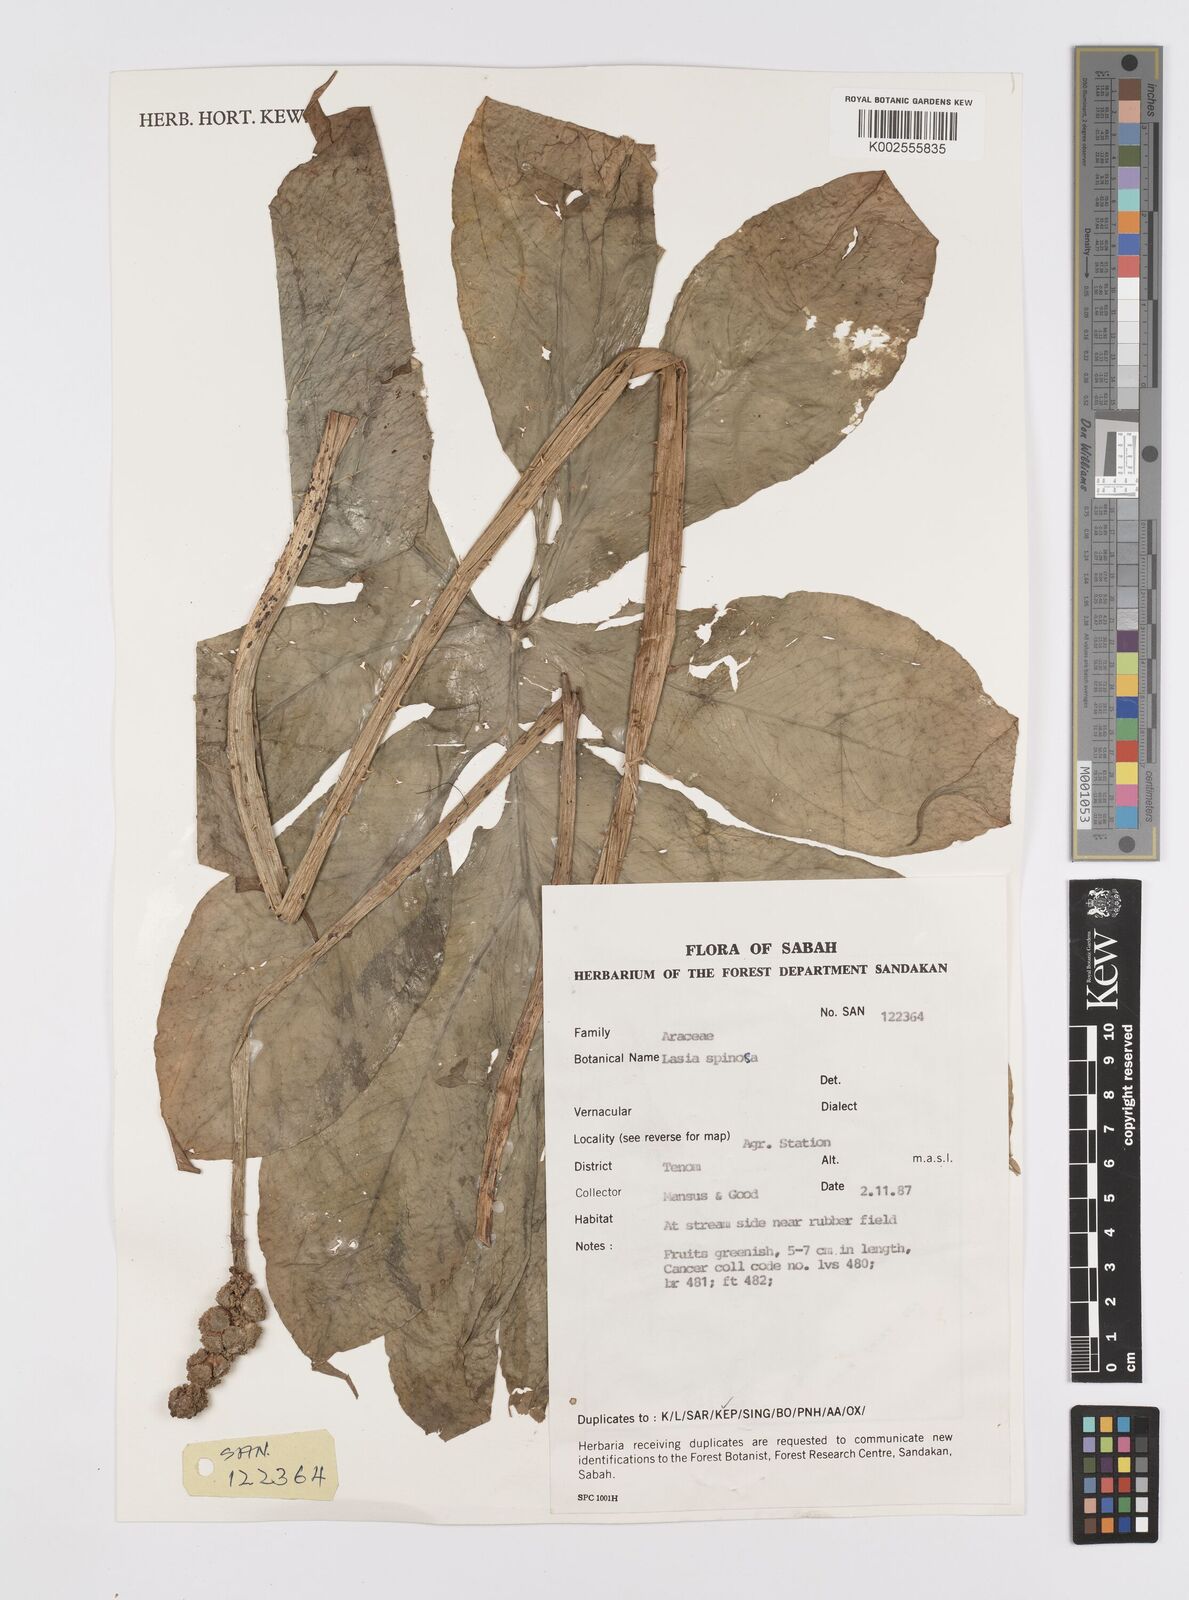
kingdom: Plantae
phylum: Tracheophyta
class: Liliopsida
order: Alismatales
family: Araceae
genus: Lasia
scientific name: Lasia spinosa
